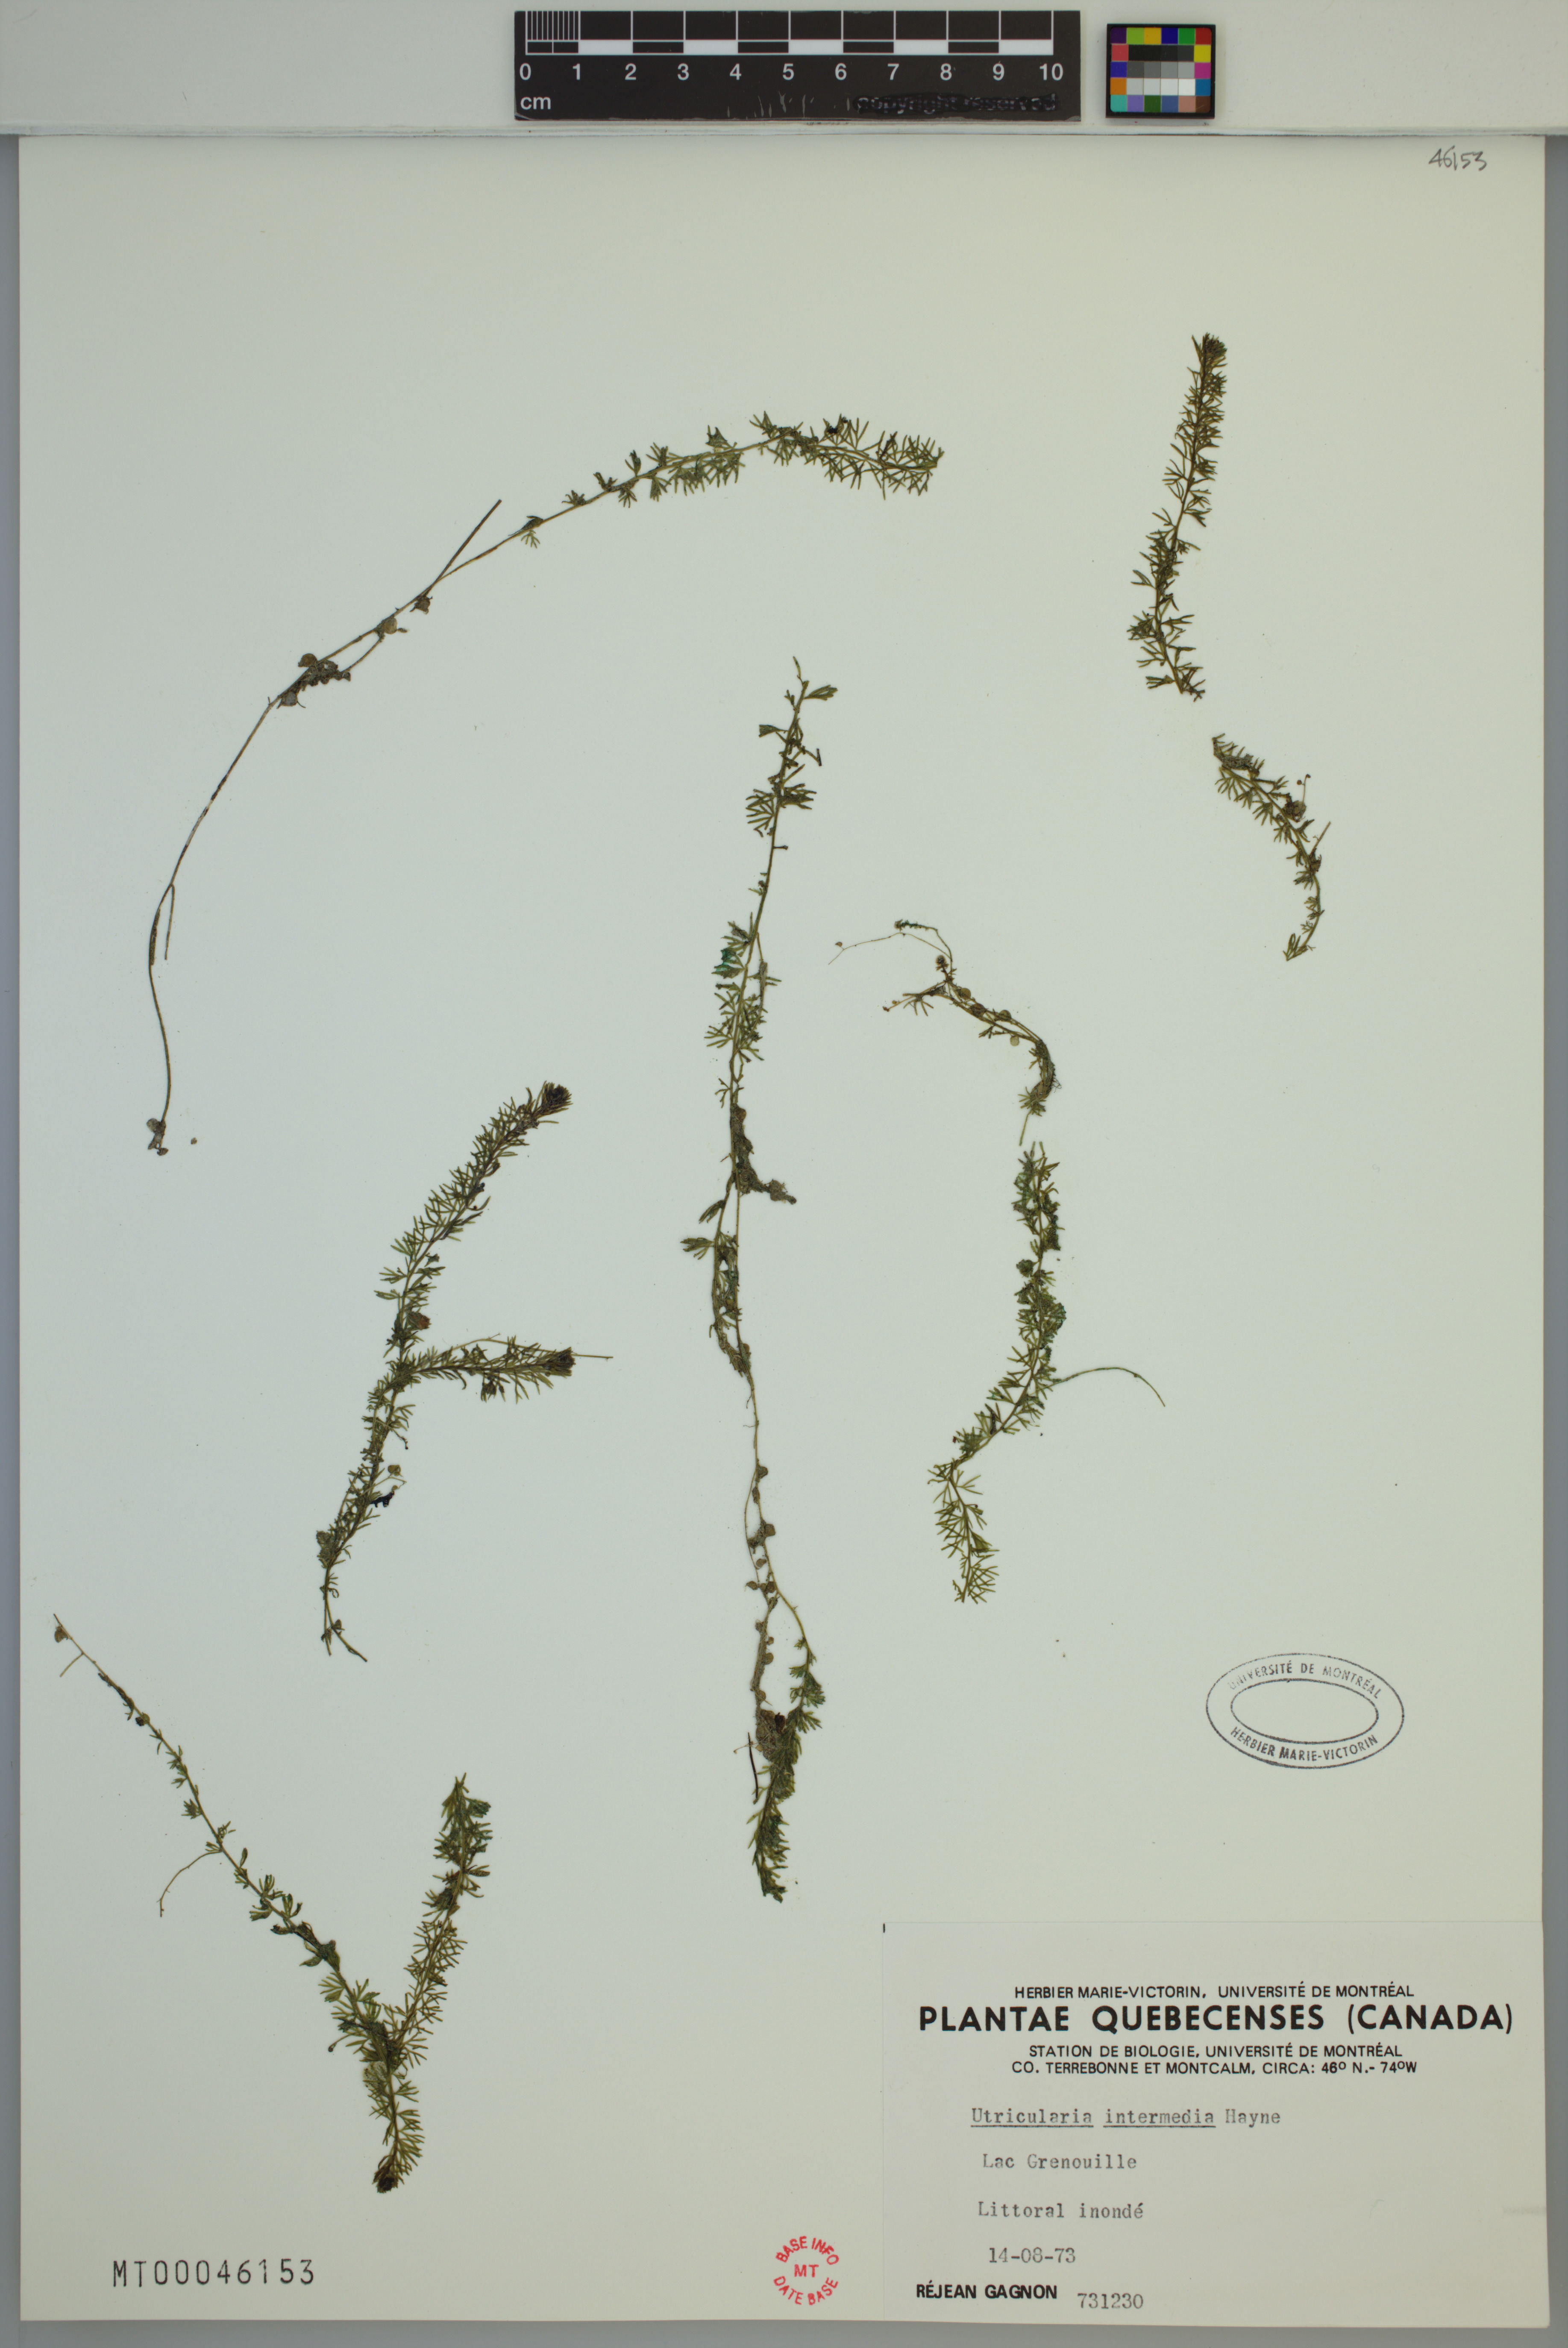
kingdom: Plantae
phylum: Tracheophyta
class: Magnoliopsida
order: Lamiales
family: Lentibulariaceae
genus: Utricularia
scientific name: Utricularia intermedia
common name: Intermediate bladderwort
